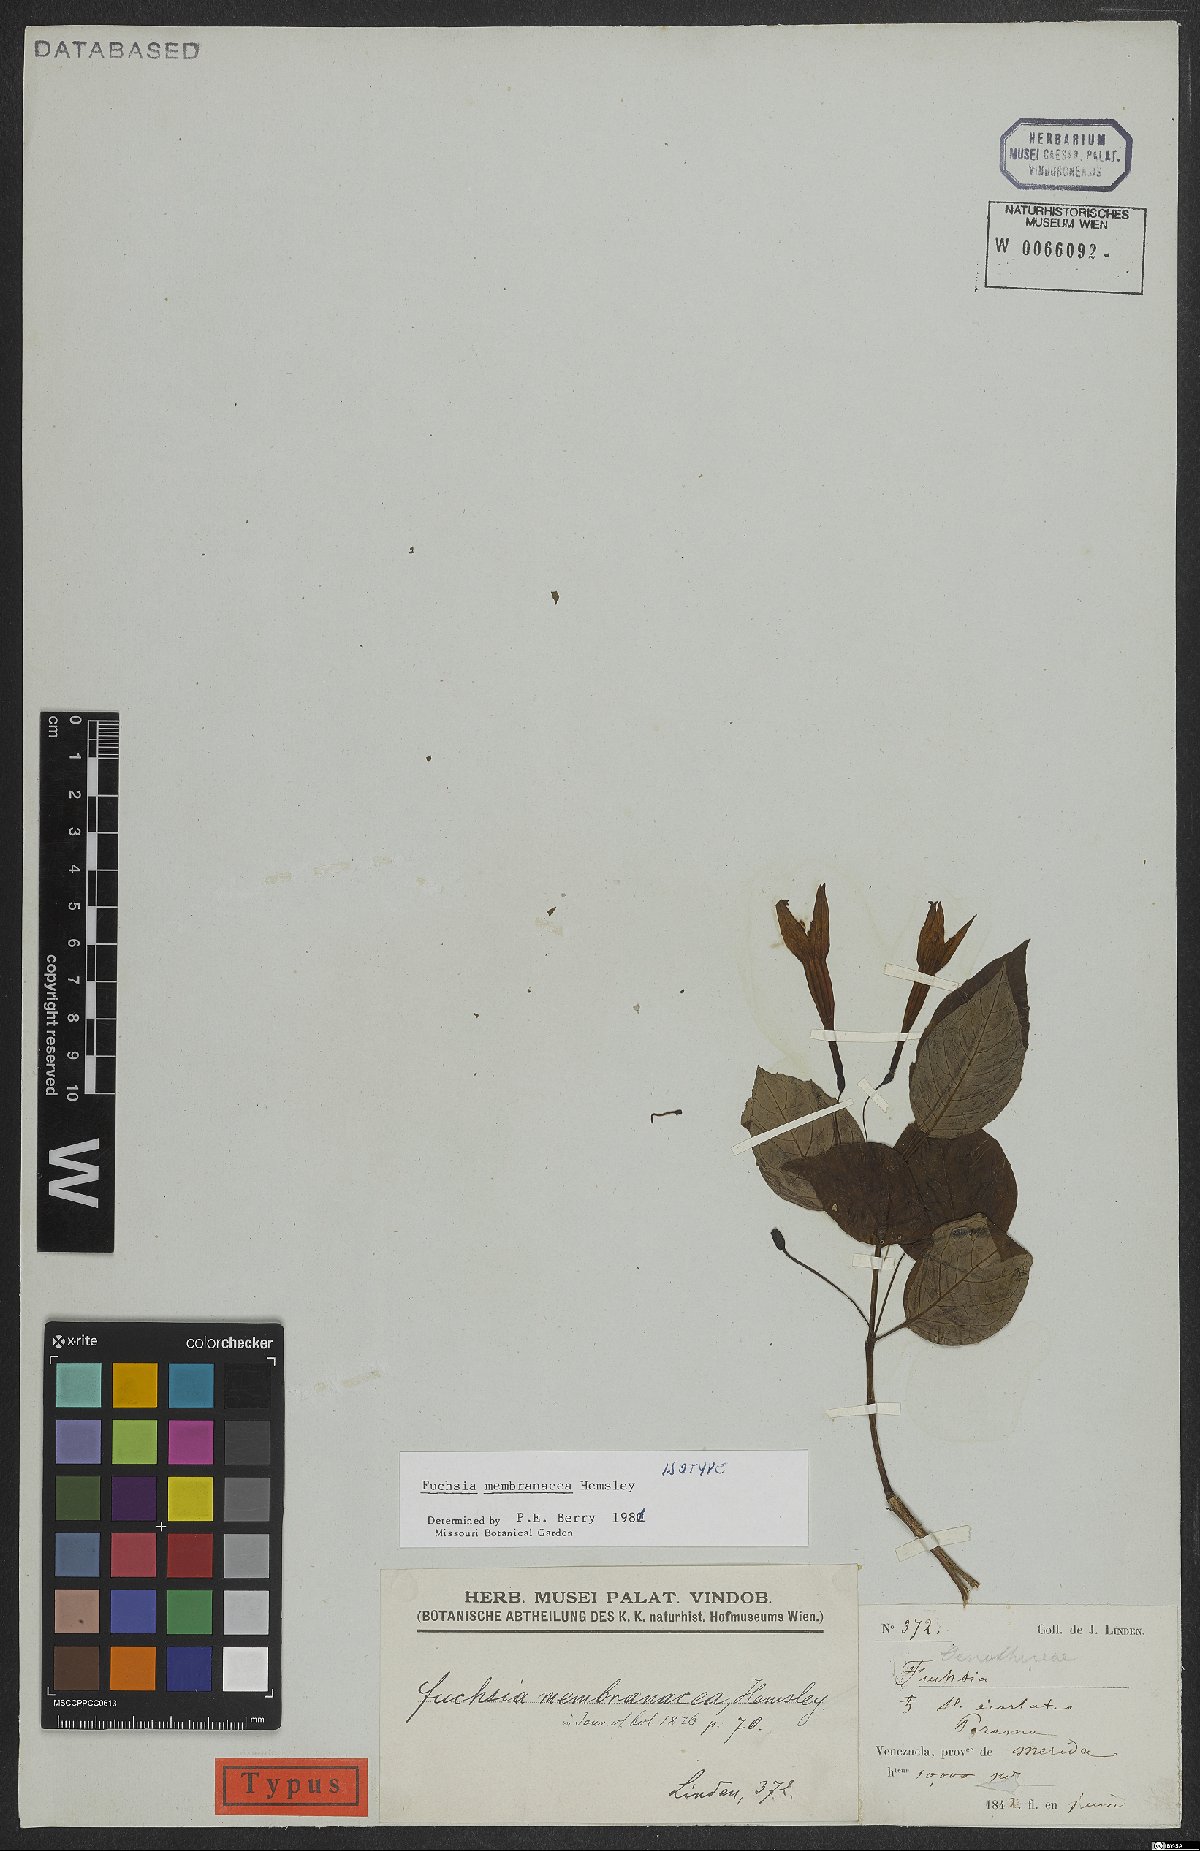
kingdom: Plantae
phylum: Tracheophyta
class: Magnoliopsida
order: Myrtales
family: Onagraceae
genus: Fuchsia
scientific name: Fuchsia membranacea
